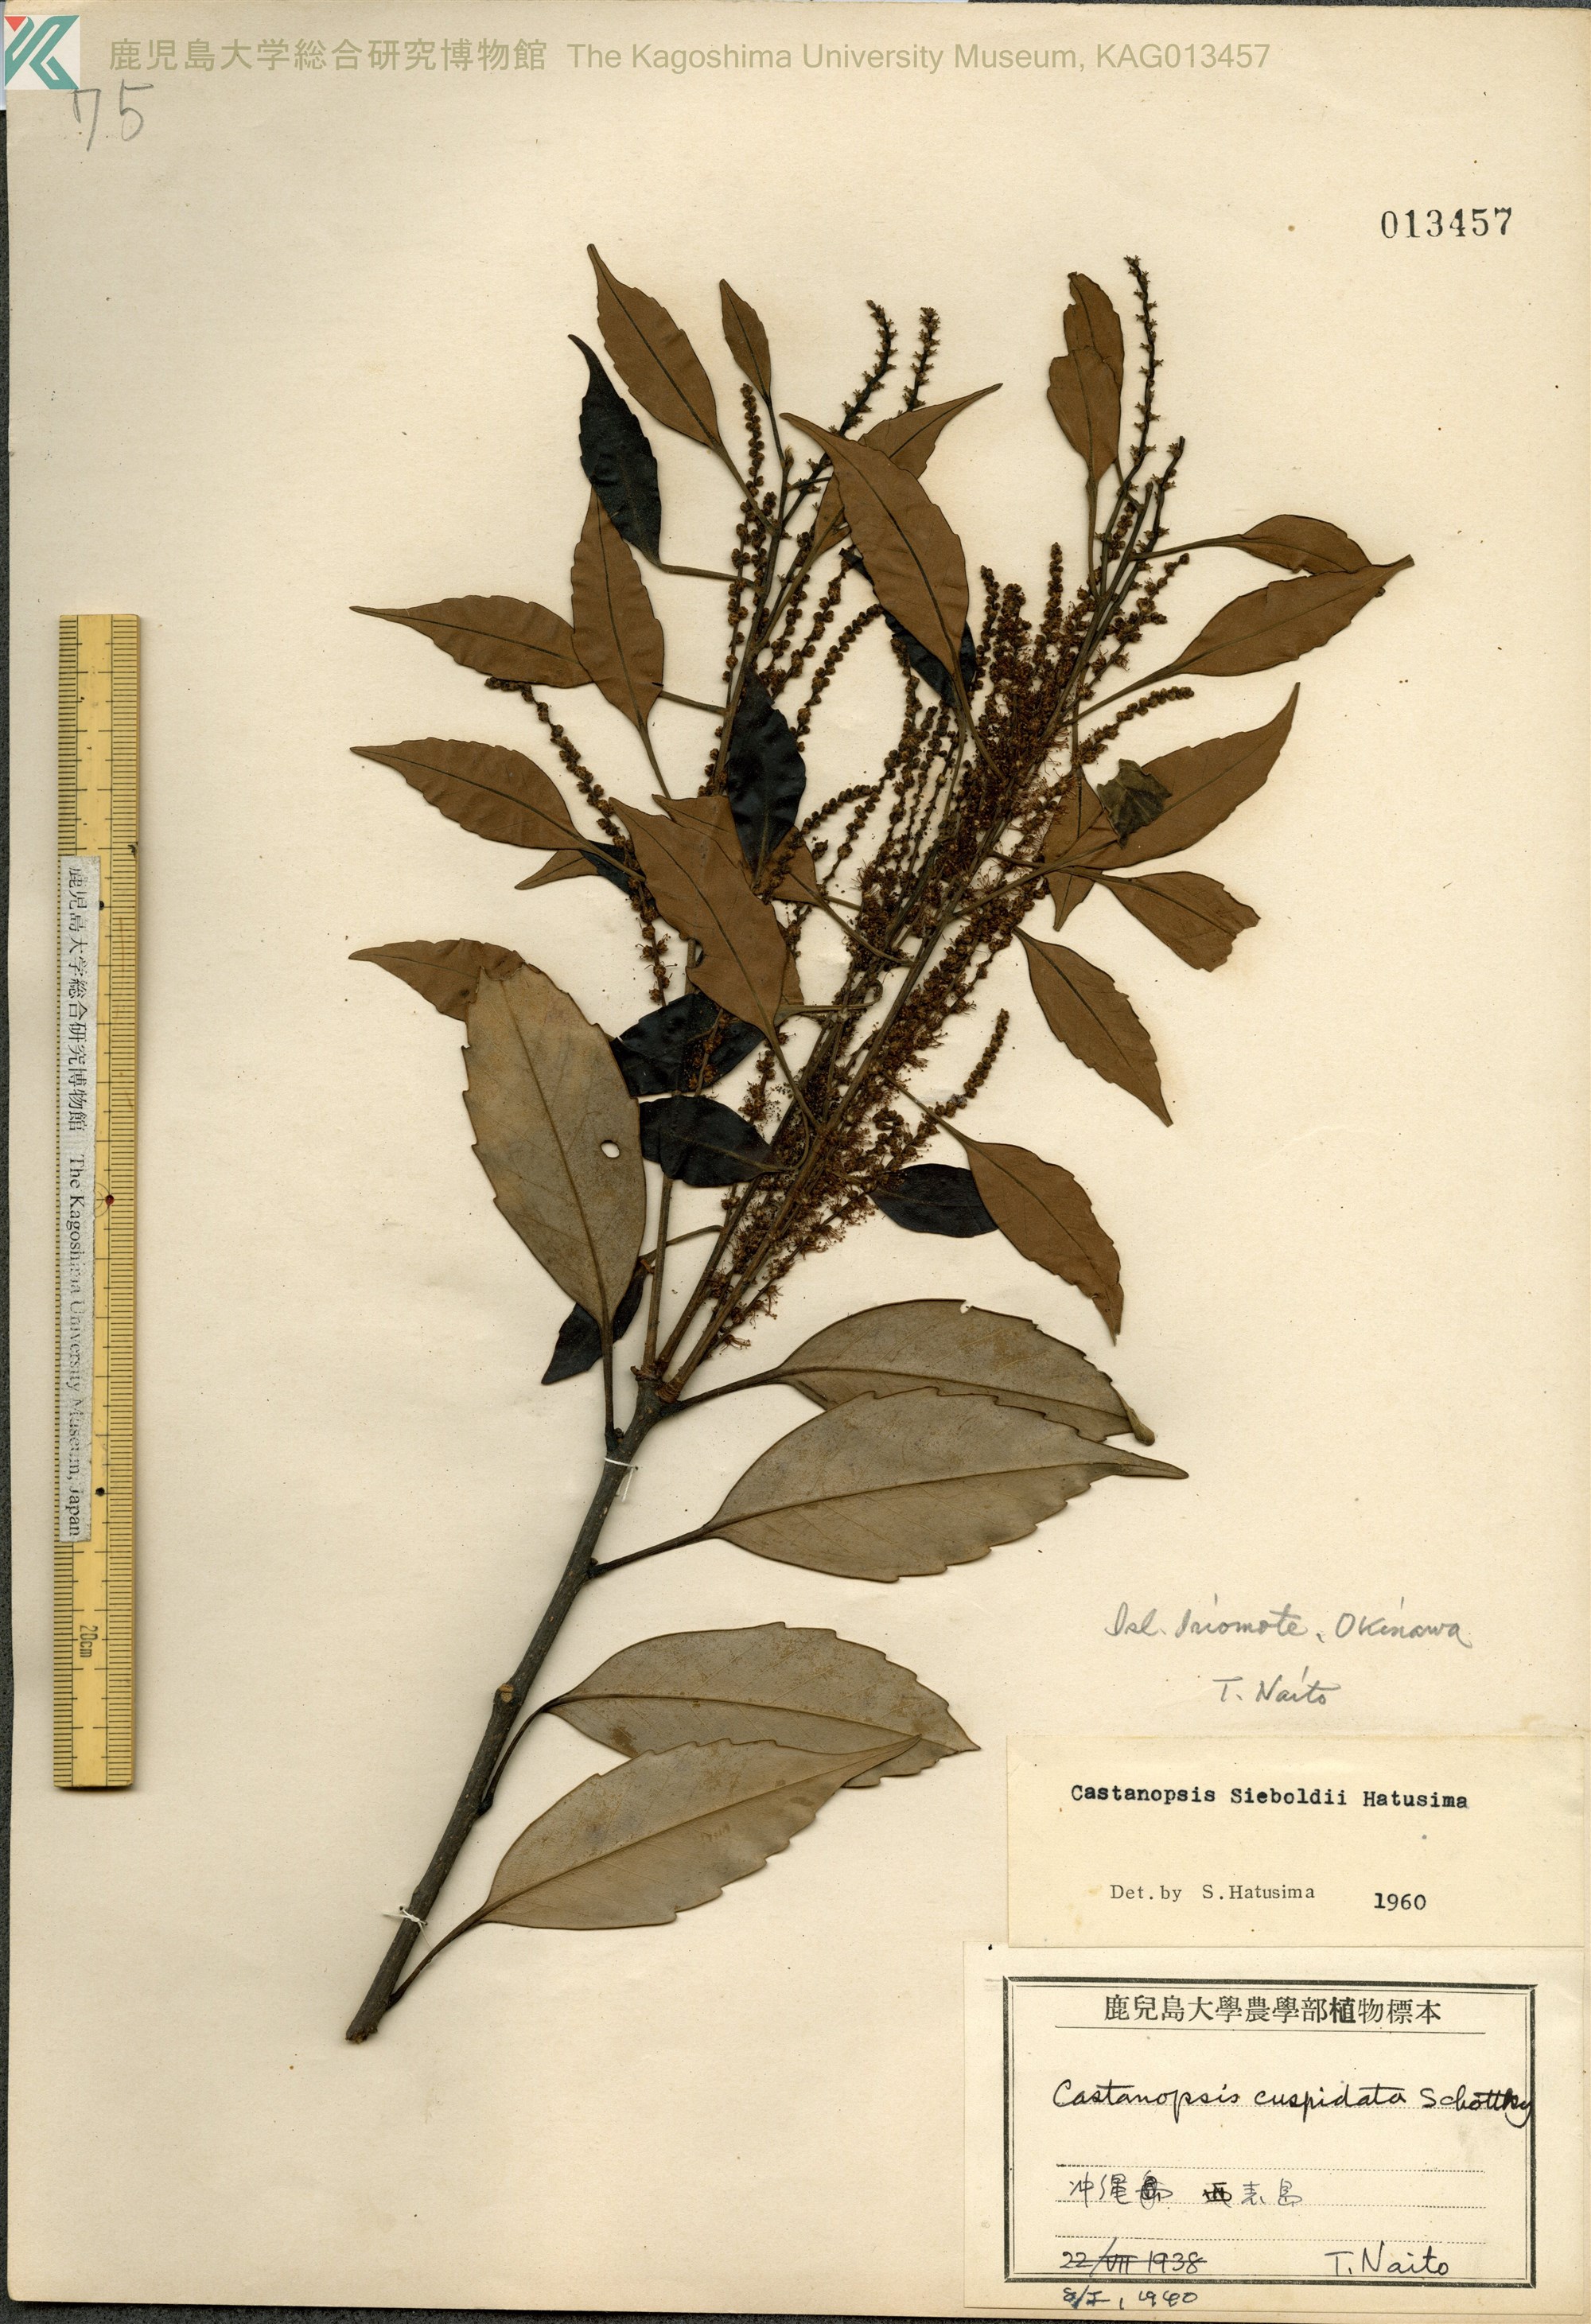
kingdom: Plantae
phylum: Tracheophyta
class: Magnoliopsida
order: Fagales
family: Fagaceae
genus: Castanopsis
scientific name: Castanopsis sieboldii
